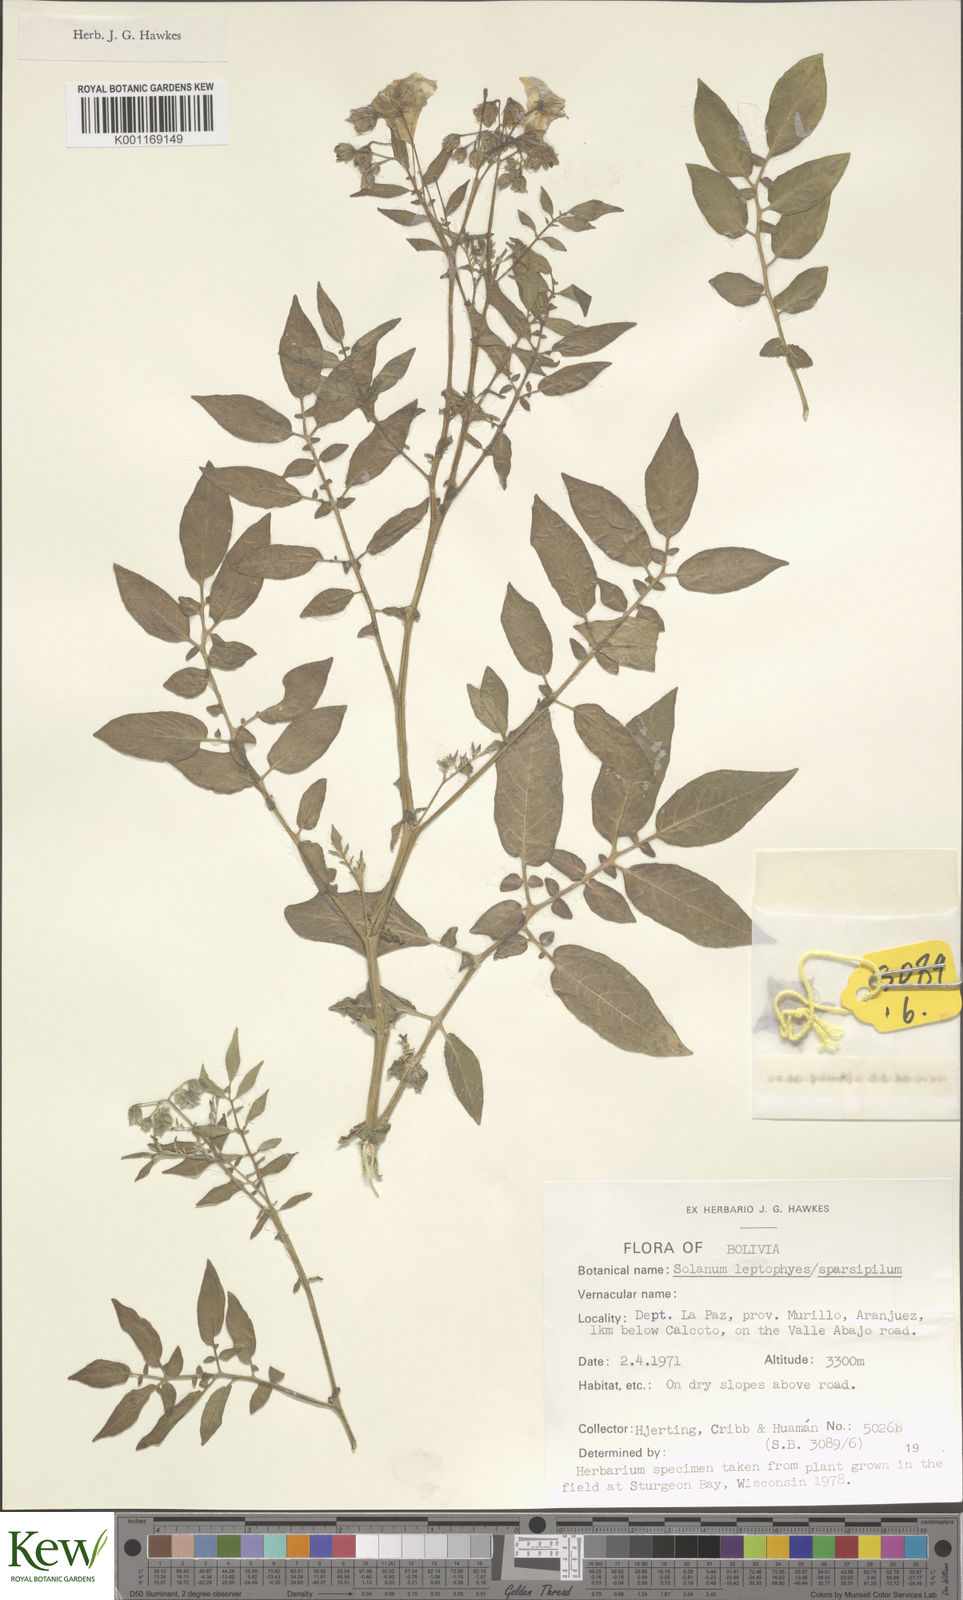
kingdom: Plantae
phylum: Tracheophyta
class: Magnoliopsida
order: Solanales
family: Solanaceae
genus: Solanum
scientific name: Solanum brevicaule
